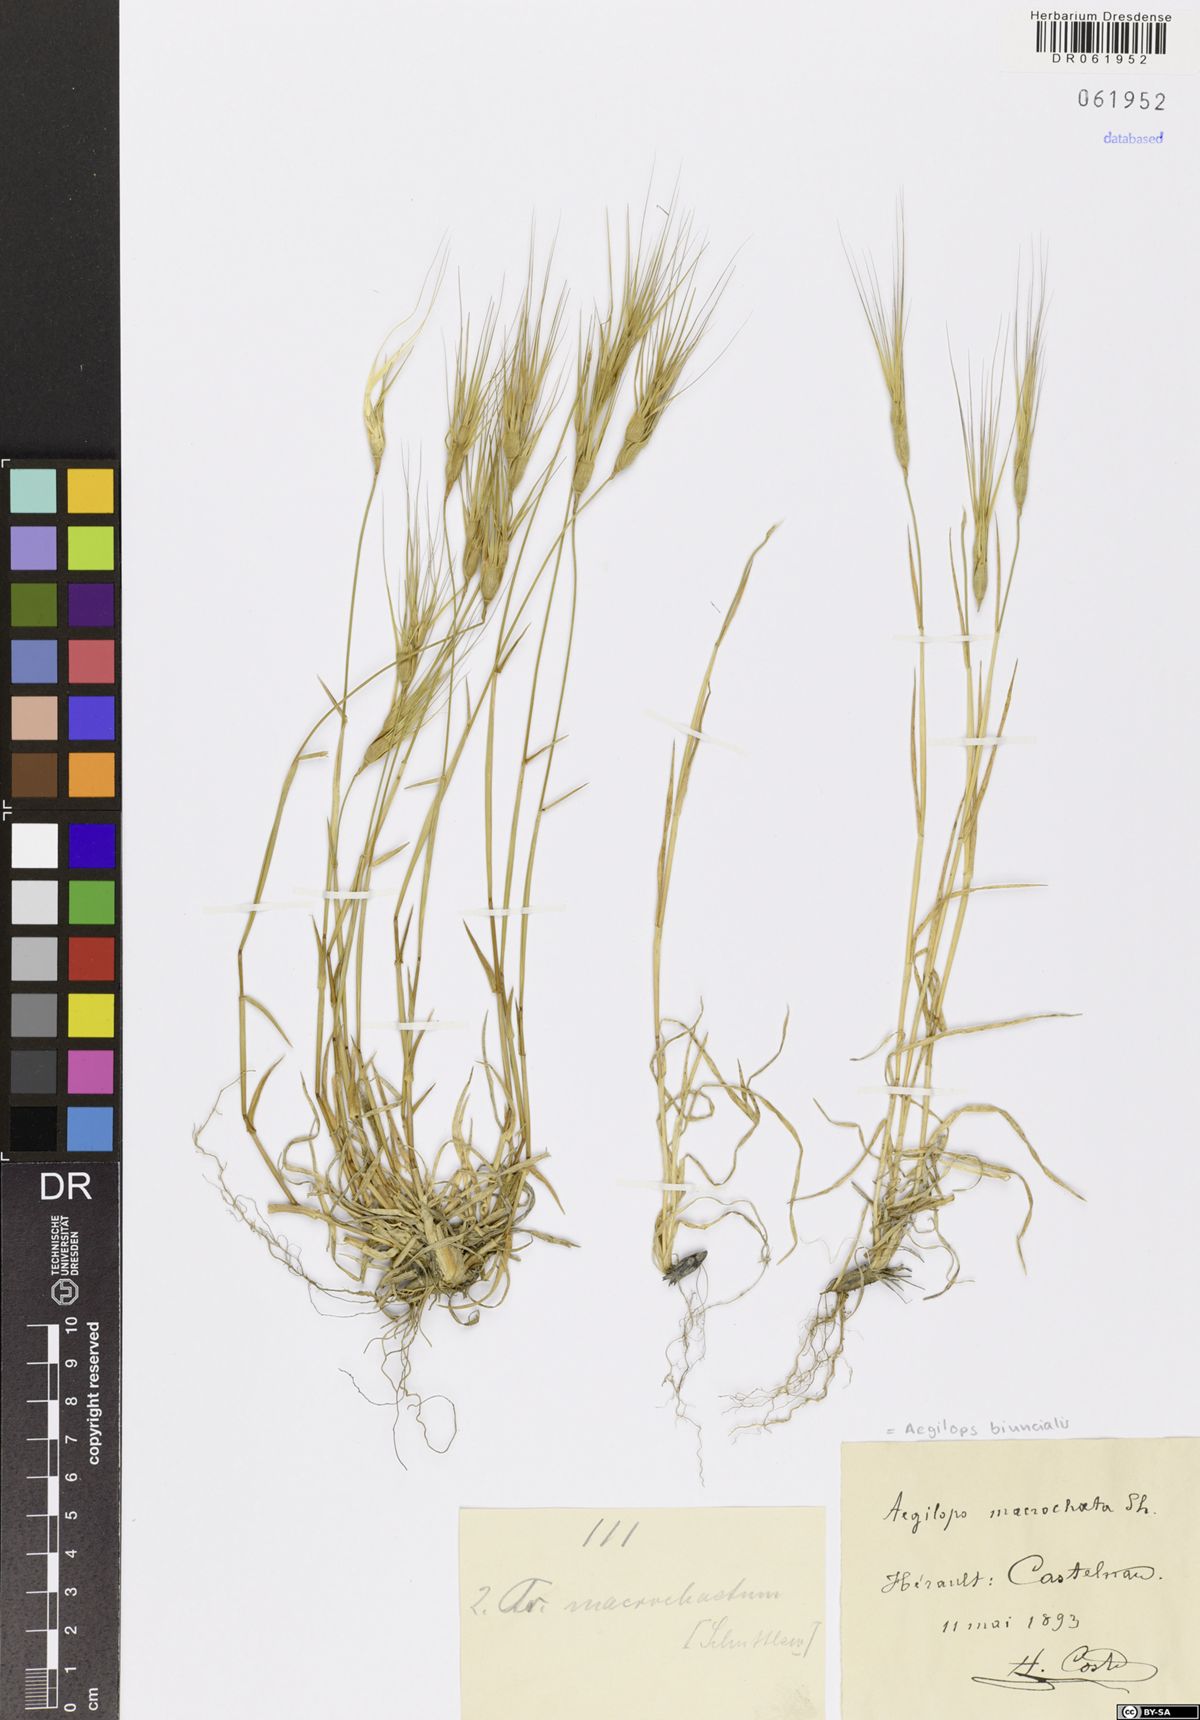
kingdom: Plantae
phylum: Tracheophyta
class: Liliopsida
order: Poales
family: Poaceae
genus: Aegilops
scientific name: Aegilops biuncialis
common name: Mediterranean aegilops
